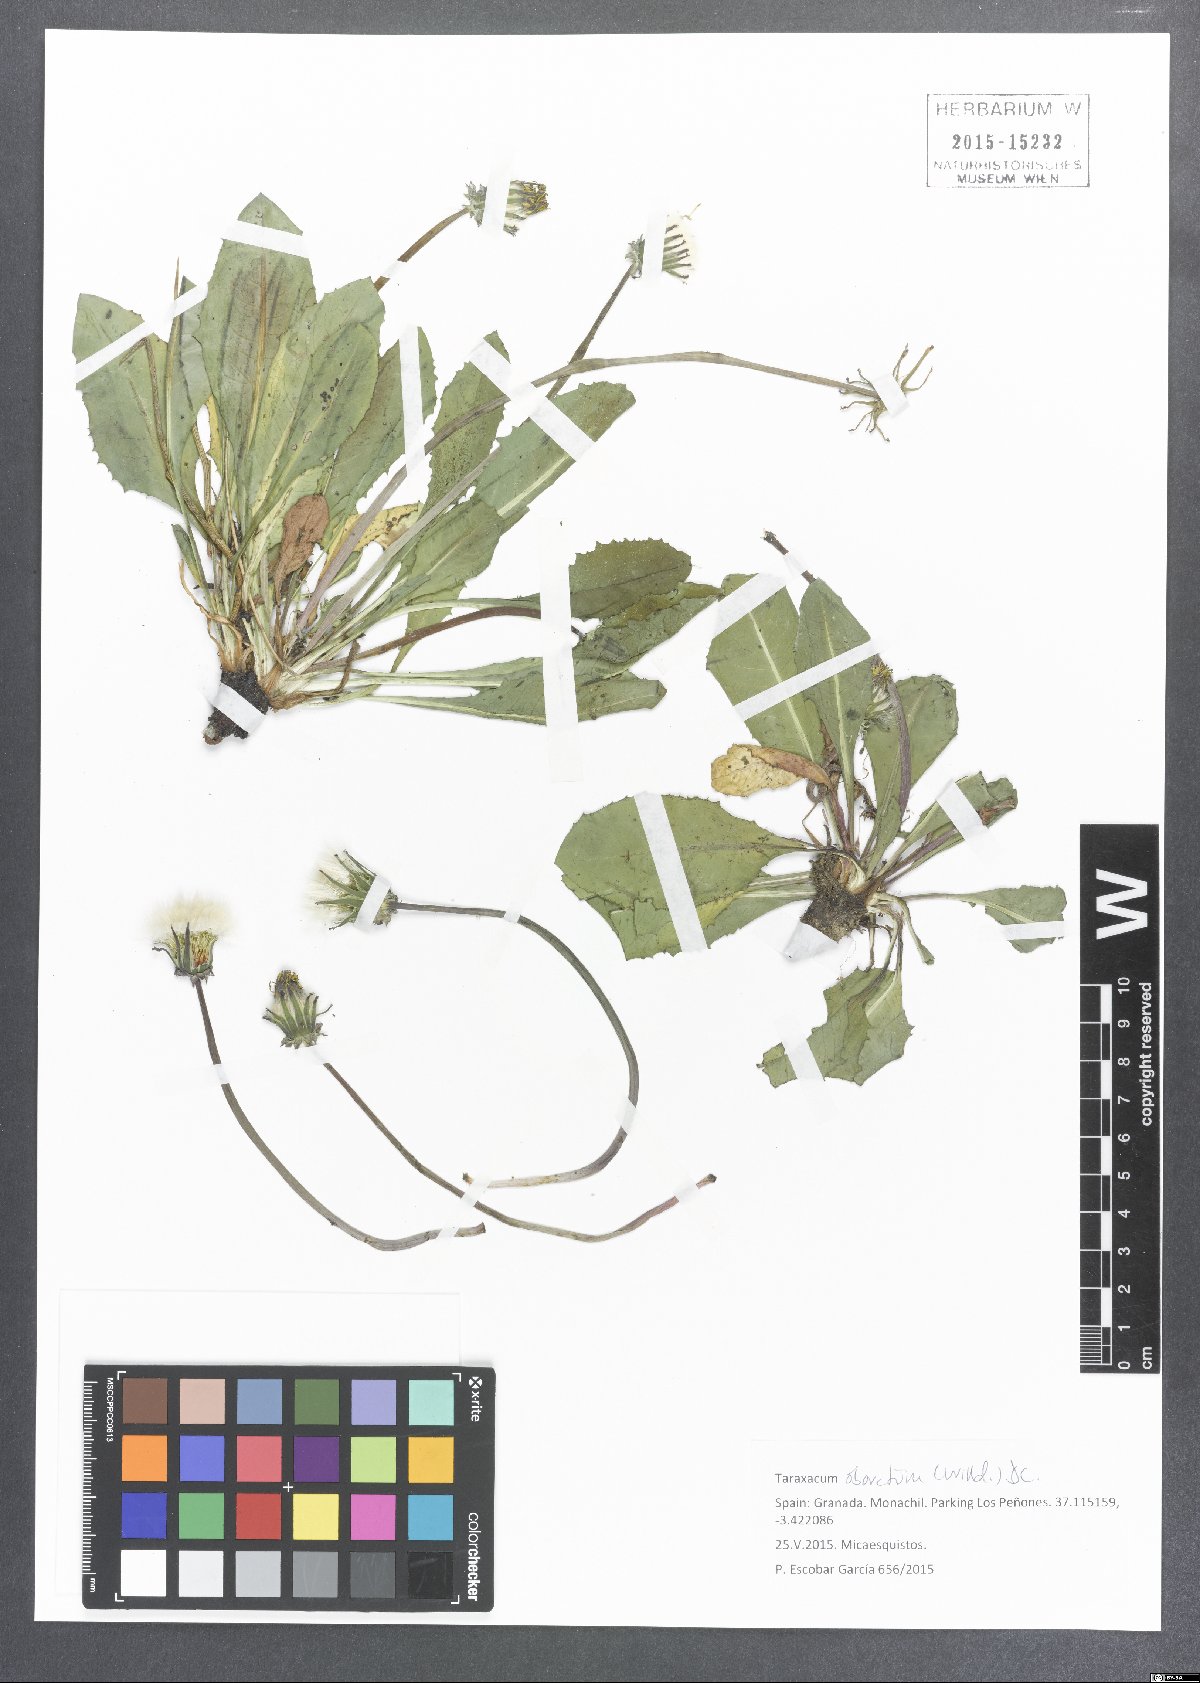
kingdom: Plantae
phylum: Tracheophyta
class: Magnoliopsida
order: Asterales
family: Asteraceae
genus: Taraxacum
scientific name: Taraxacum obovatum
